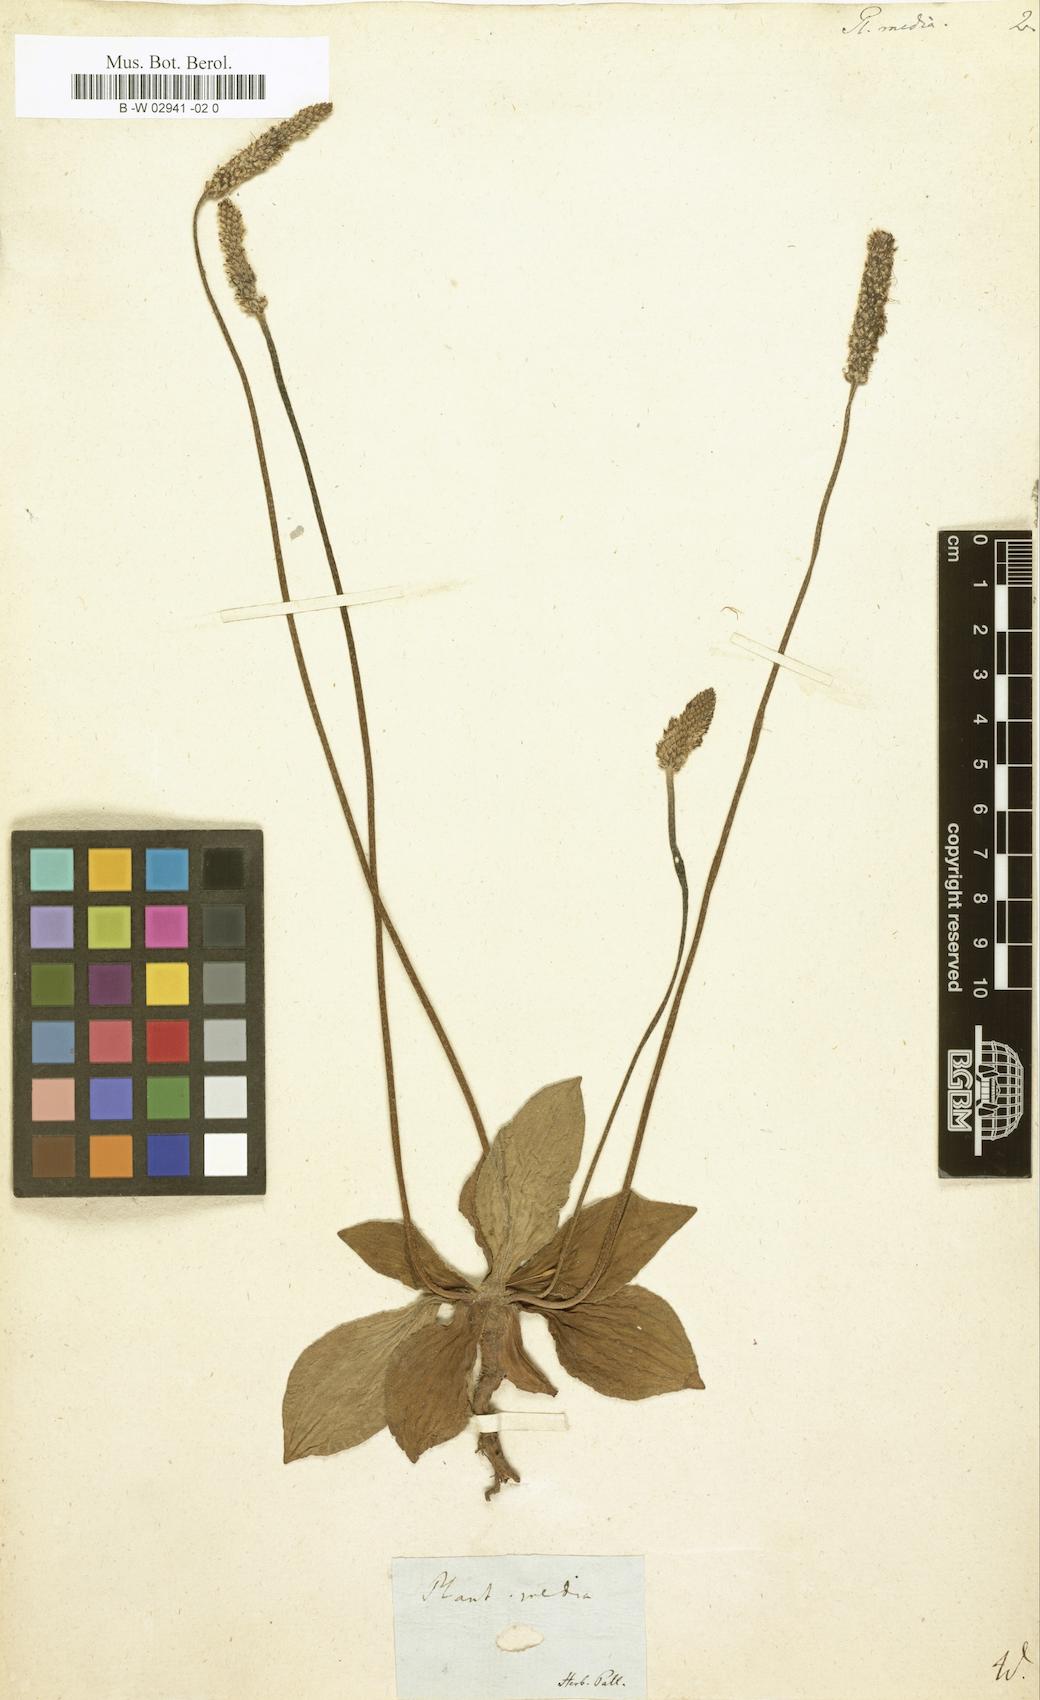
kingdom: Plantae
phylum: Tracheophyta
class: Magnoliopsida
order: Lamiales
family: Plantaginaceae
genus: Plantago
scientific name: Plantago media
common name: Hoary plantain
